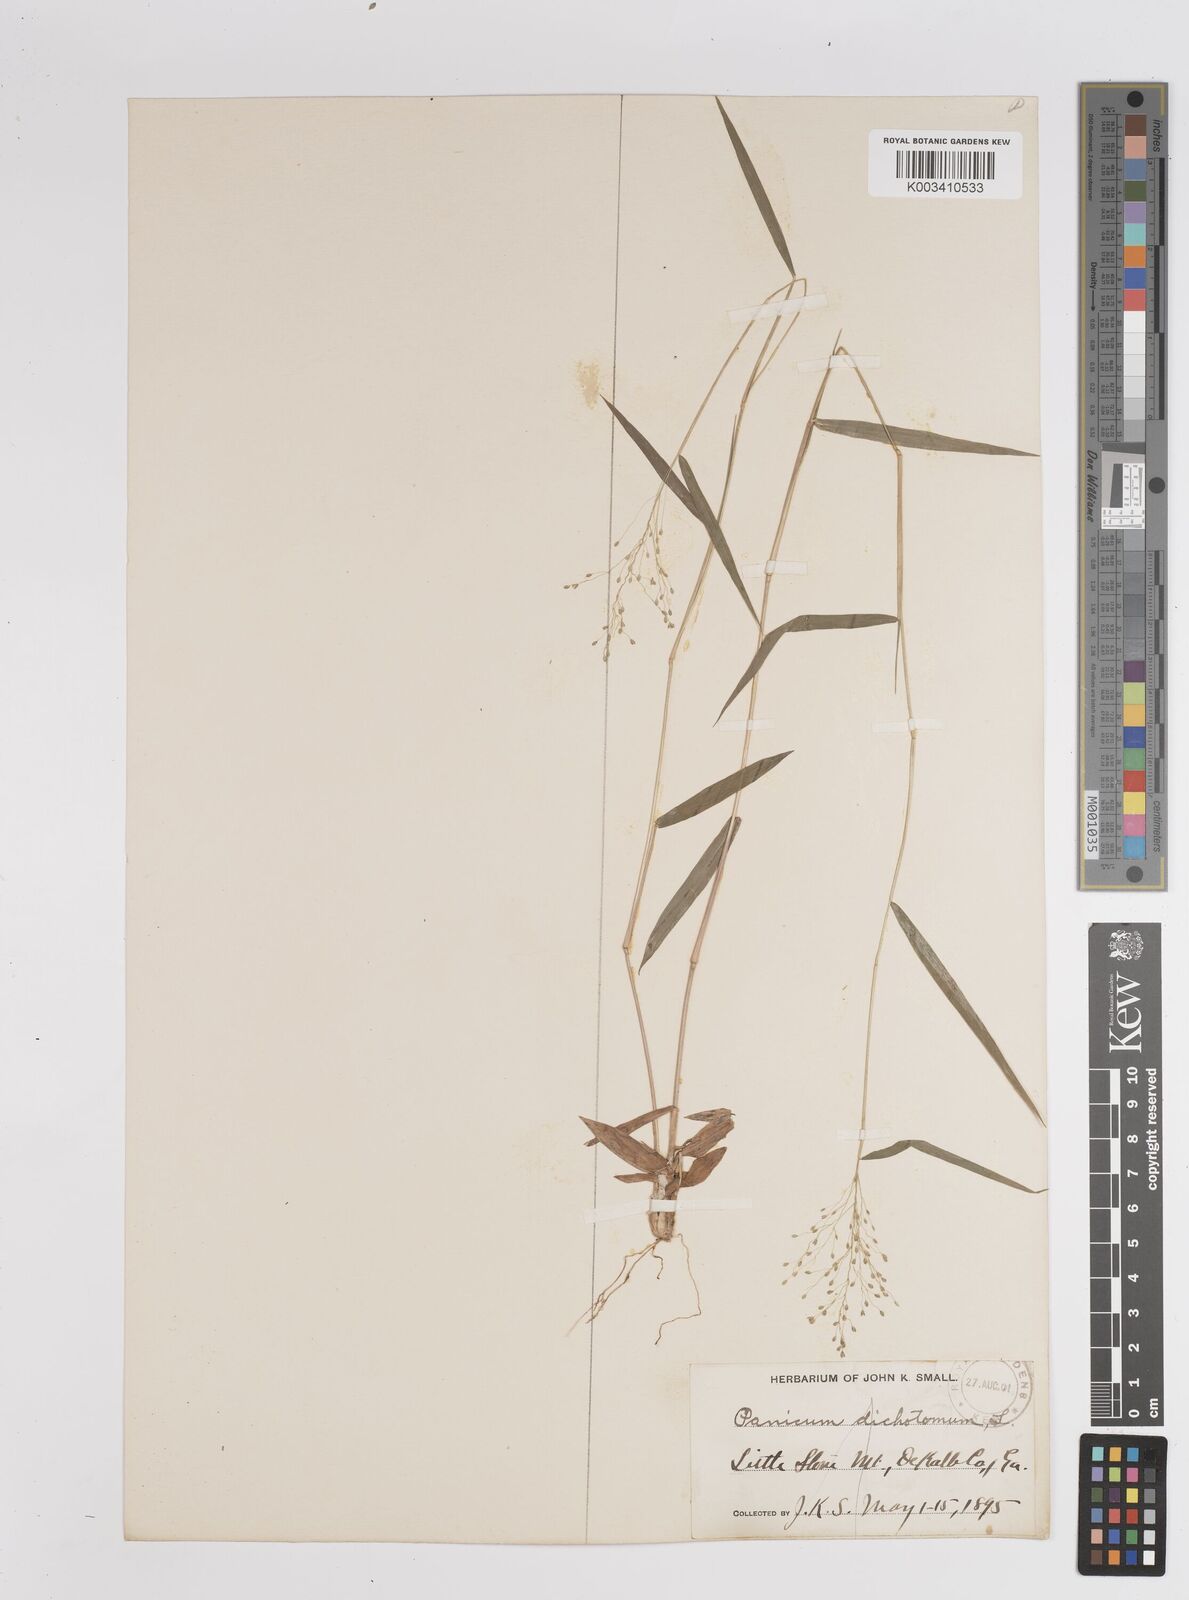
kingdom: Plantae
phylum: Tracheophyta
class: Liliopsida
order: Poales
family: Poaceae
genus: Dichanthelium
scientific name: Dichanthelium polyanthes
